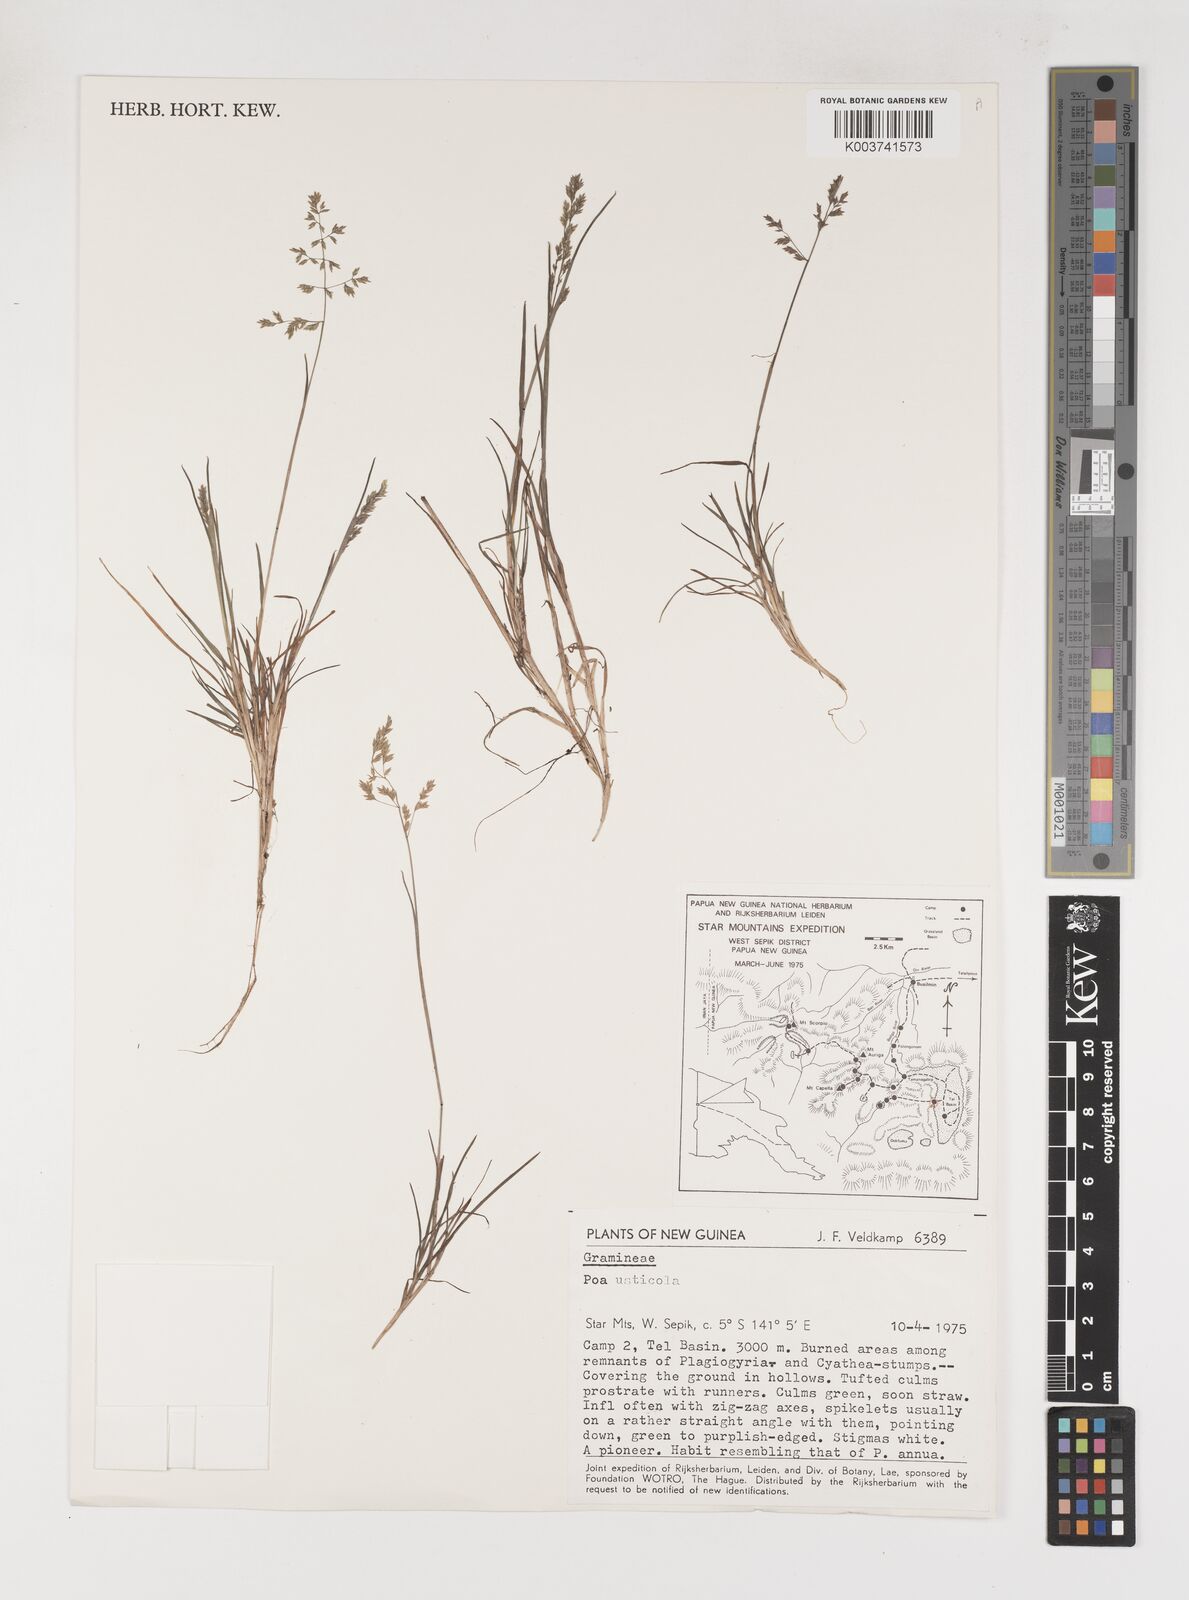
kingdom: Plantae
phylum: Tracheophyta
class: Liliopsida
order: Poales
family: Poaceae
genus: Poa
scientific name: Poa
